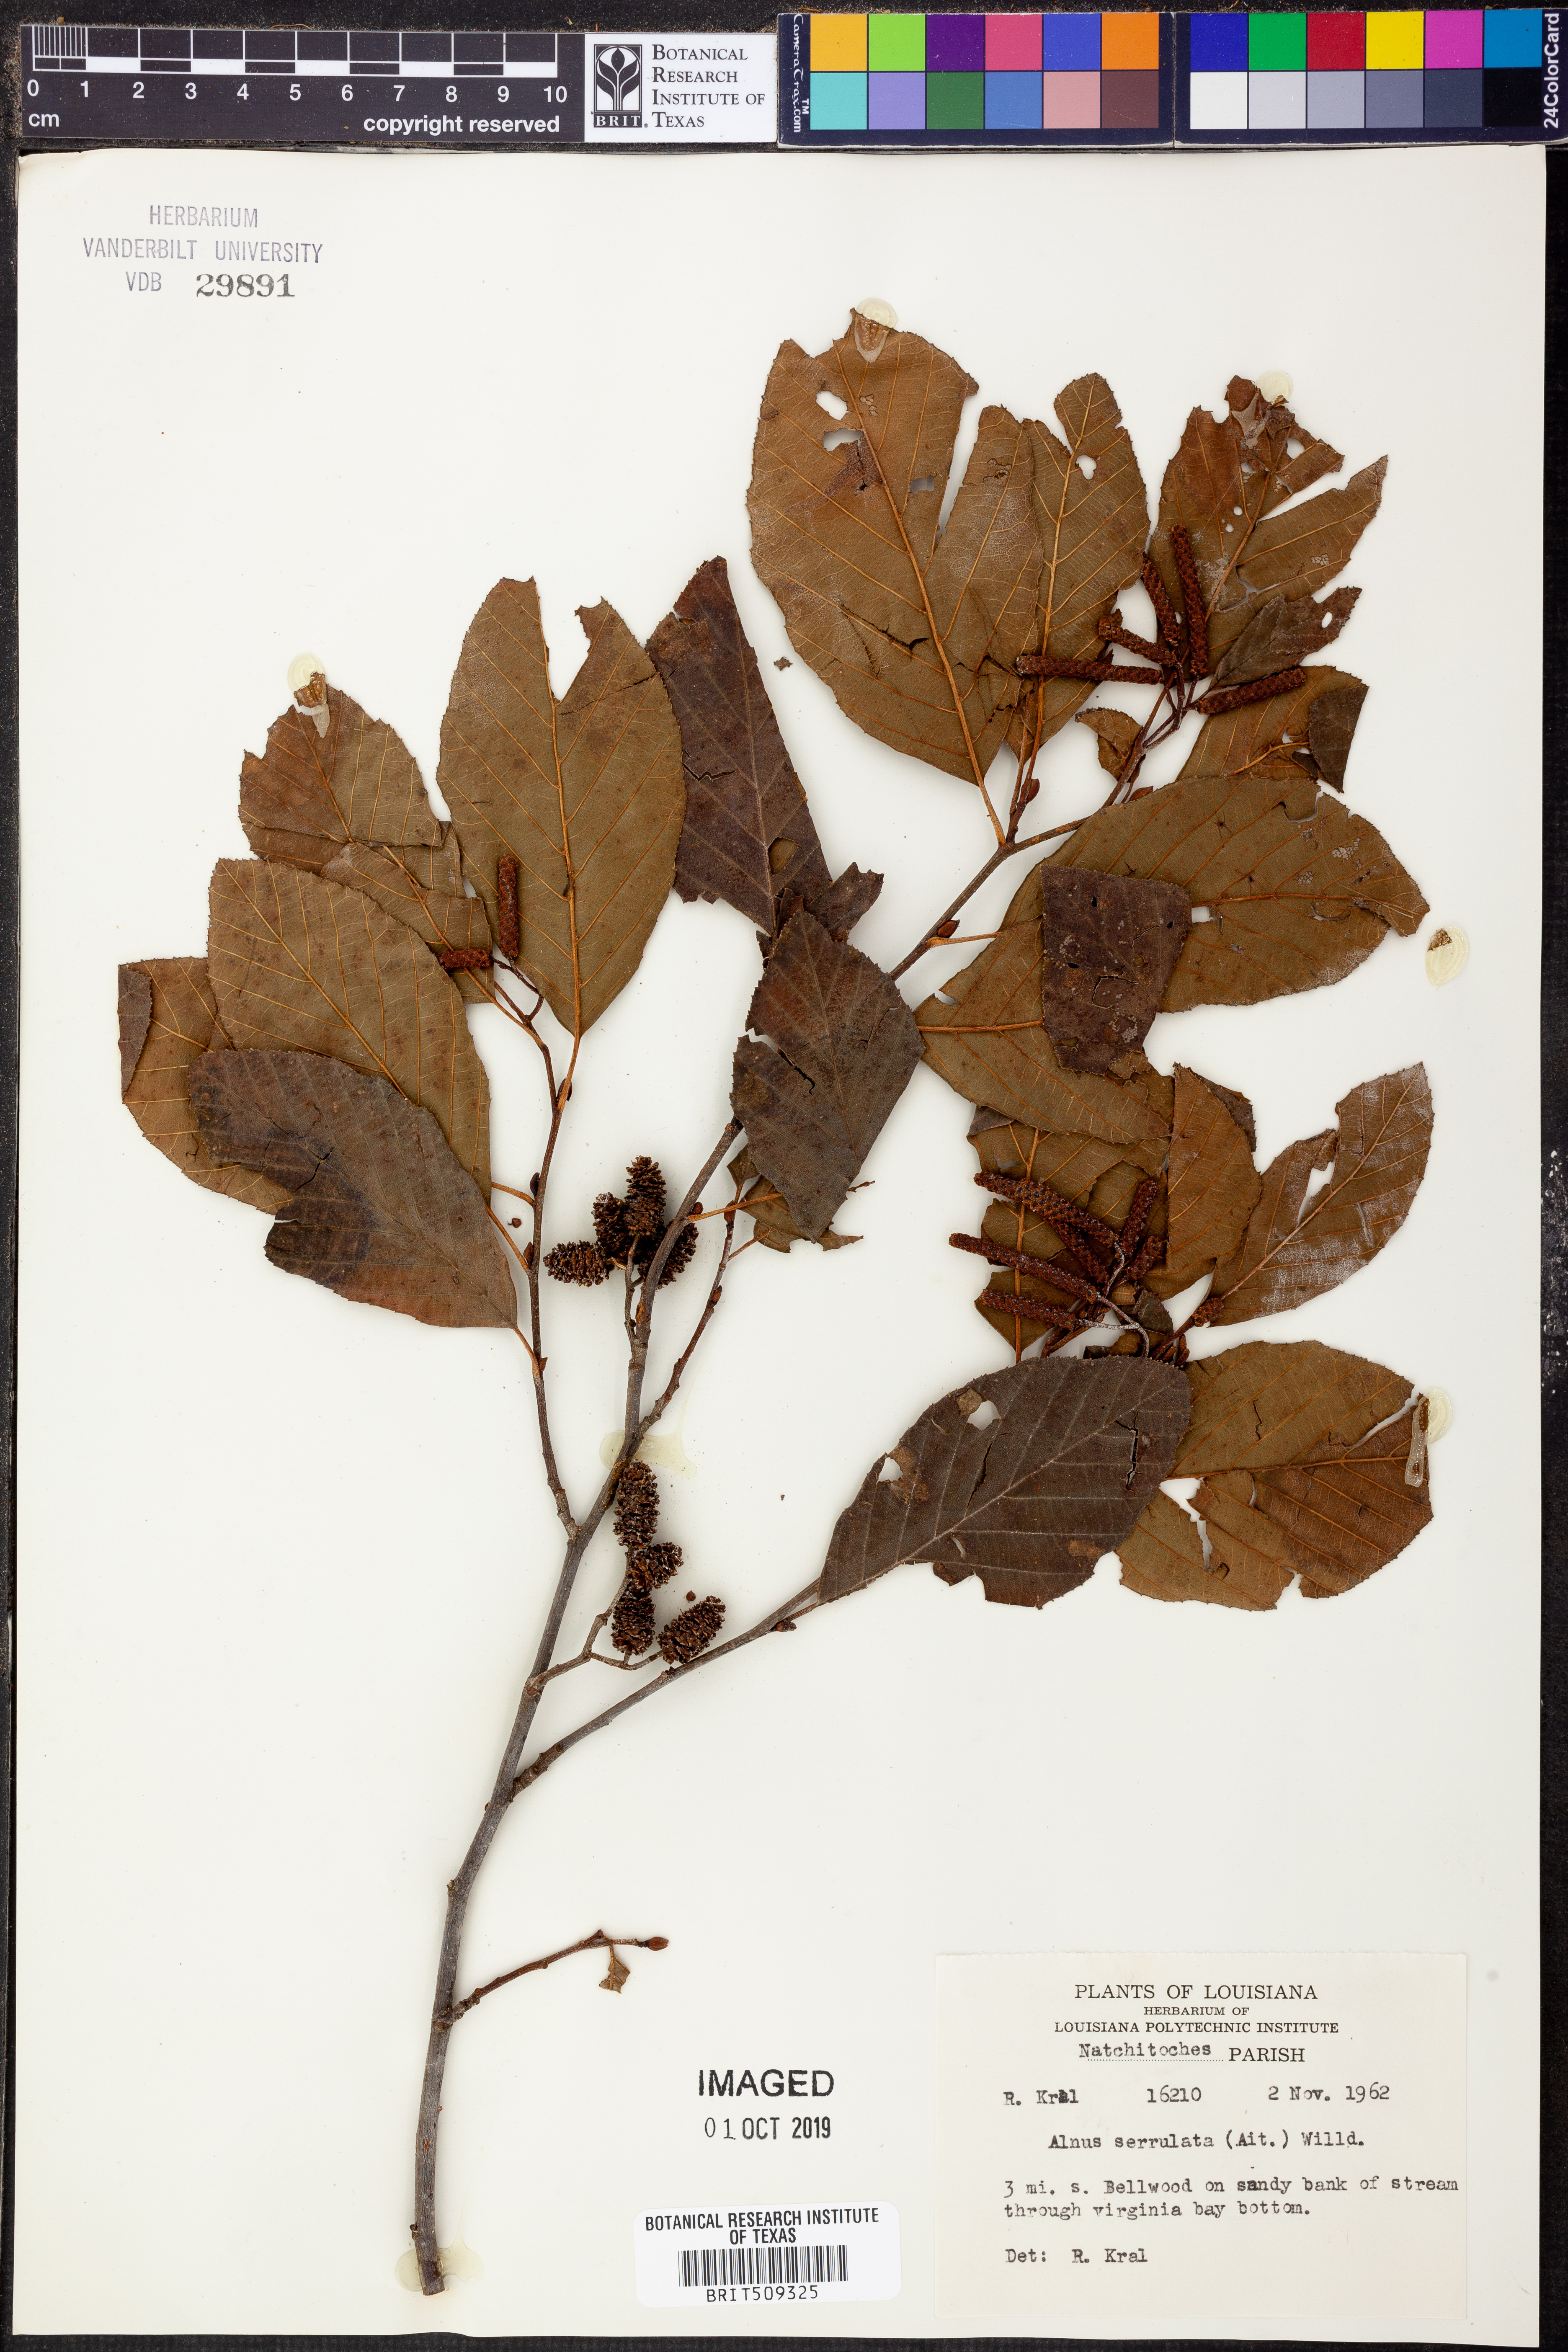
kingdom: Plantae
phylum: Tracheophyta
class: Magnoliopsida
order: Fagales
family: Betulaceae
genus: Alnus
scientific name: Alnus serrulata
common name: Hazel alder
